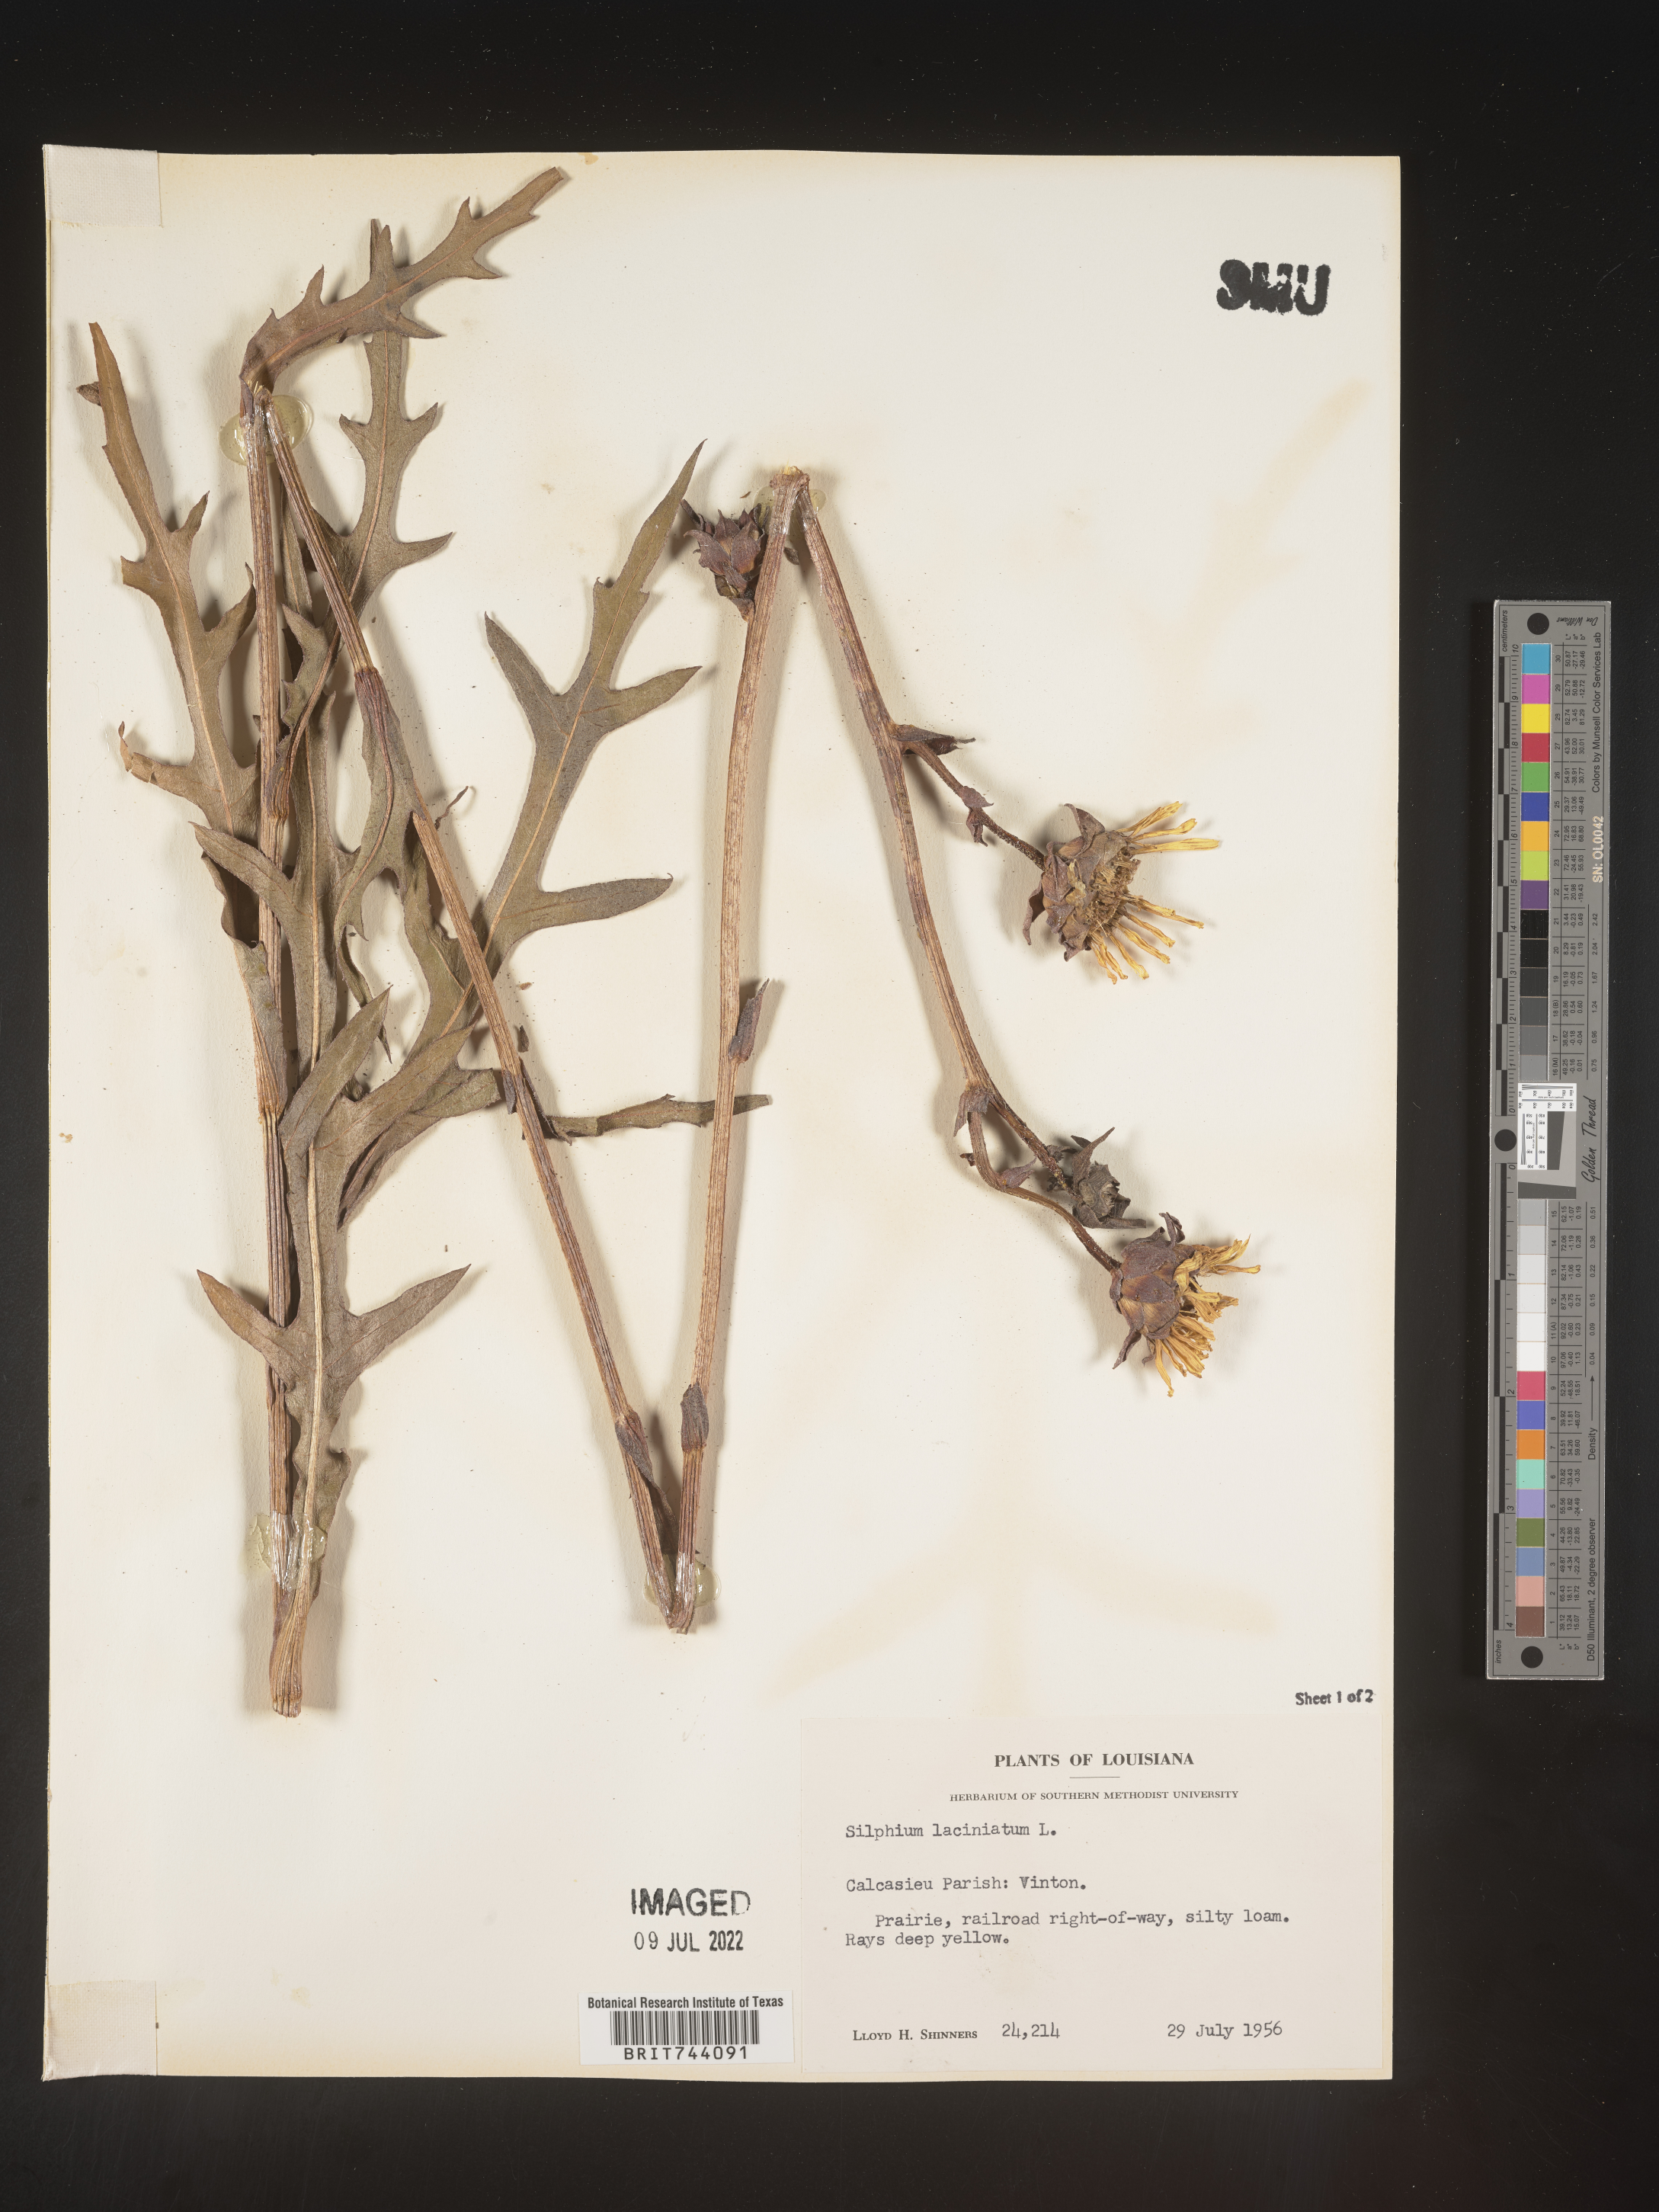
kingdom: Plantae
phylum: Tracheophyta
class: Magnoliopsida
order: Asterales
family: Asteraceae
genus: Silphium
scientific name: Silphium laciniatum
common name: Polarplant
